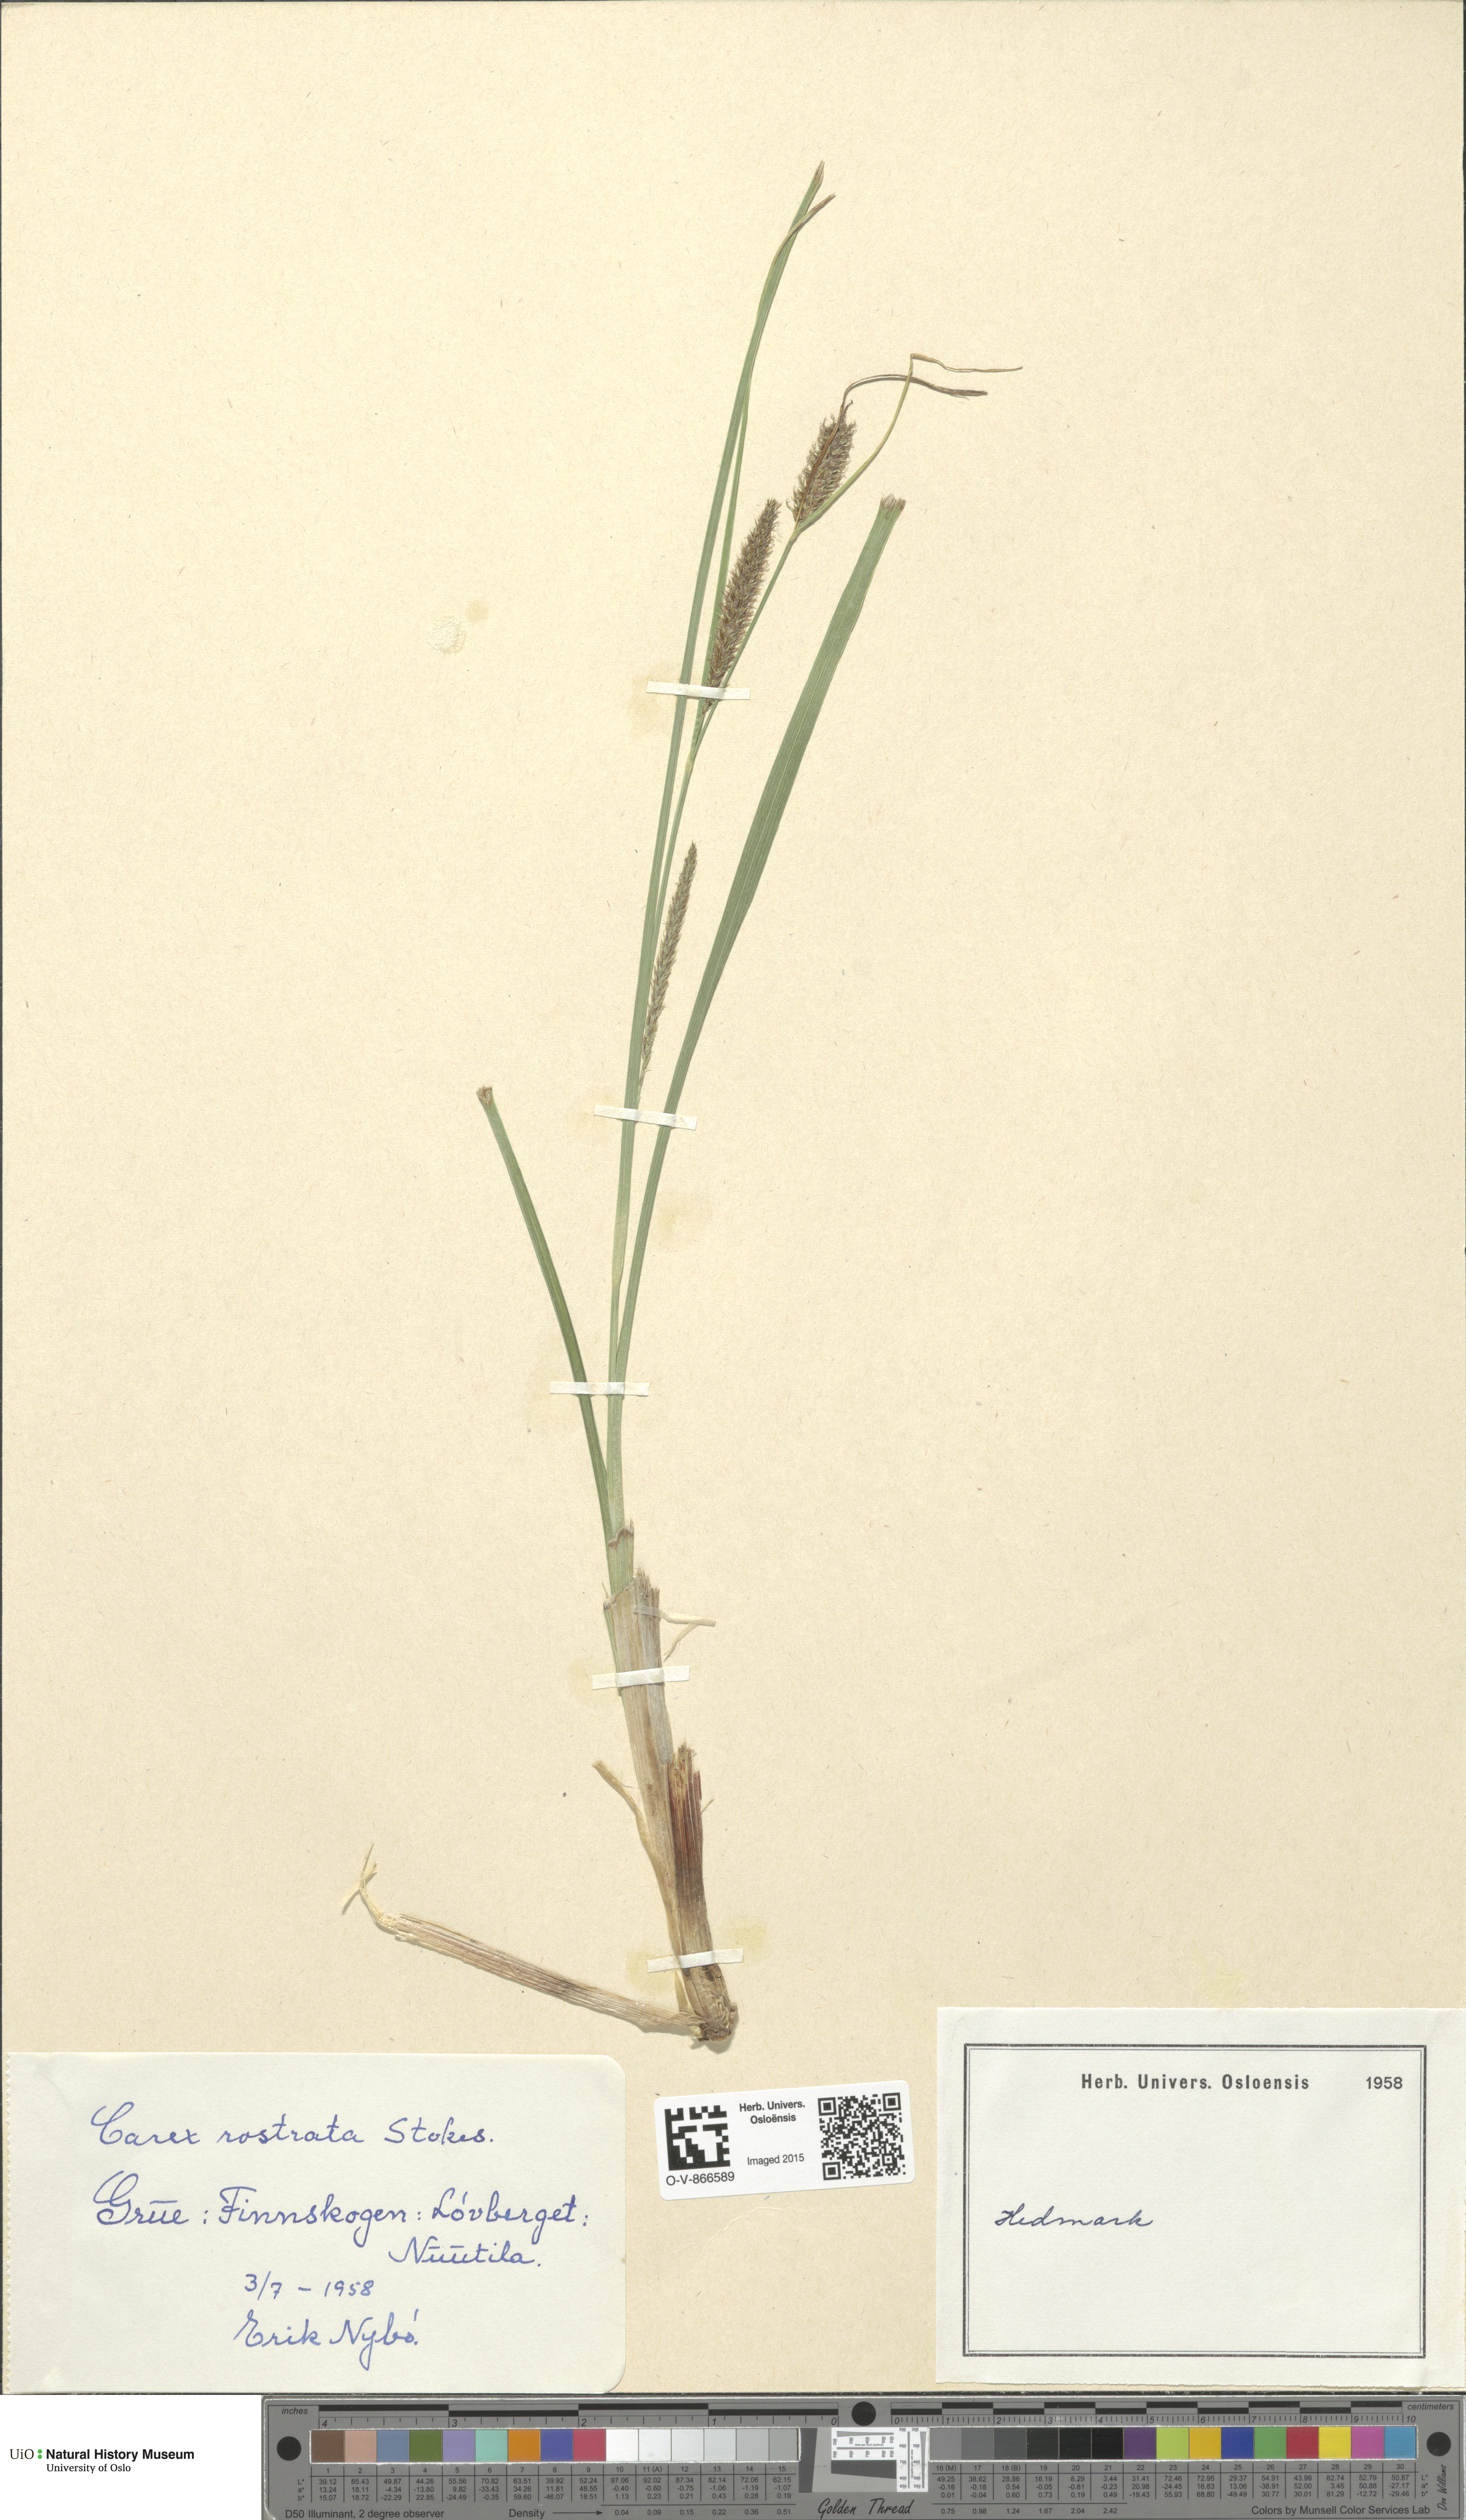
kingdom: Plantae
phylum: Tracheophyta
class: Liliopsida
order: Poales
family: Cyperaceae
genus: Carex
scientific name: Carex rostrata
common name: Bottle sedge
